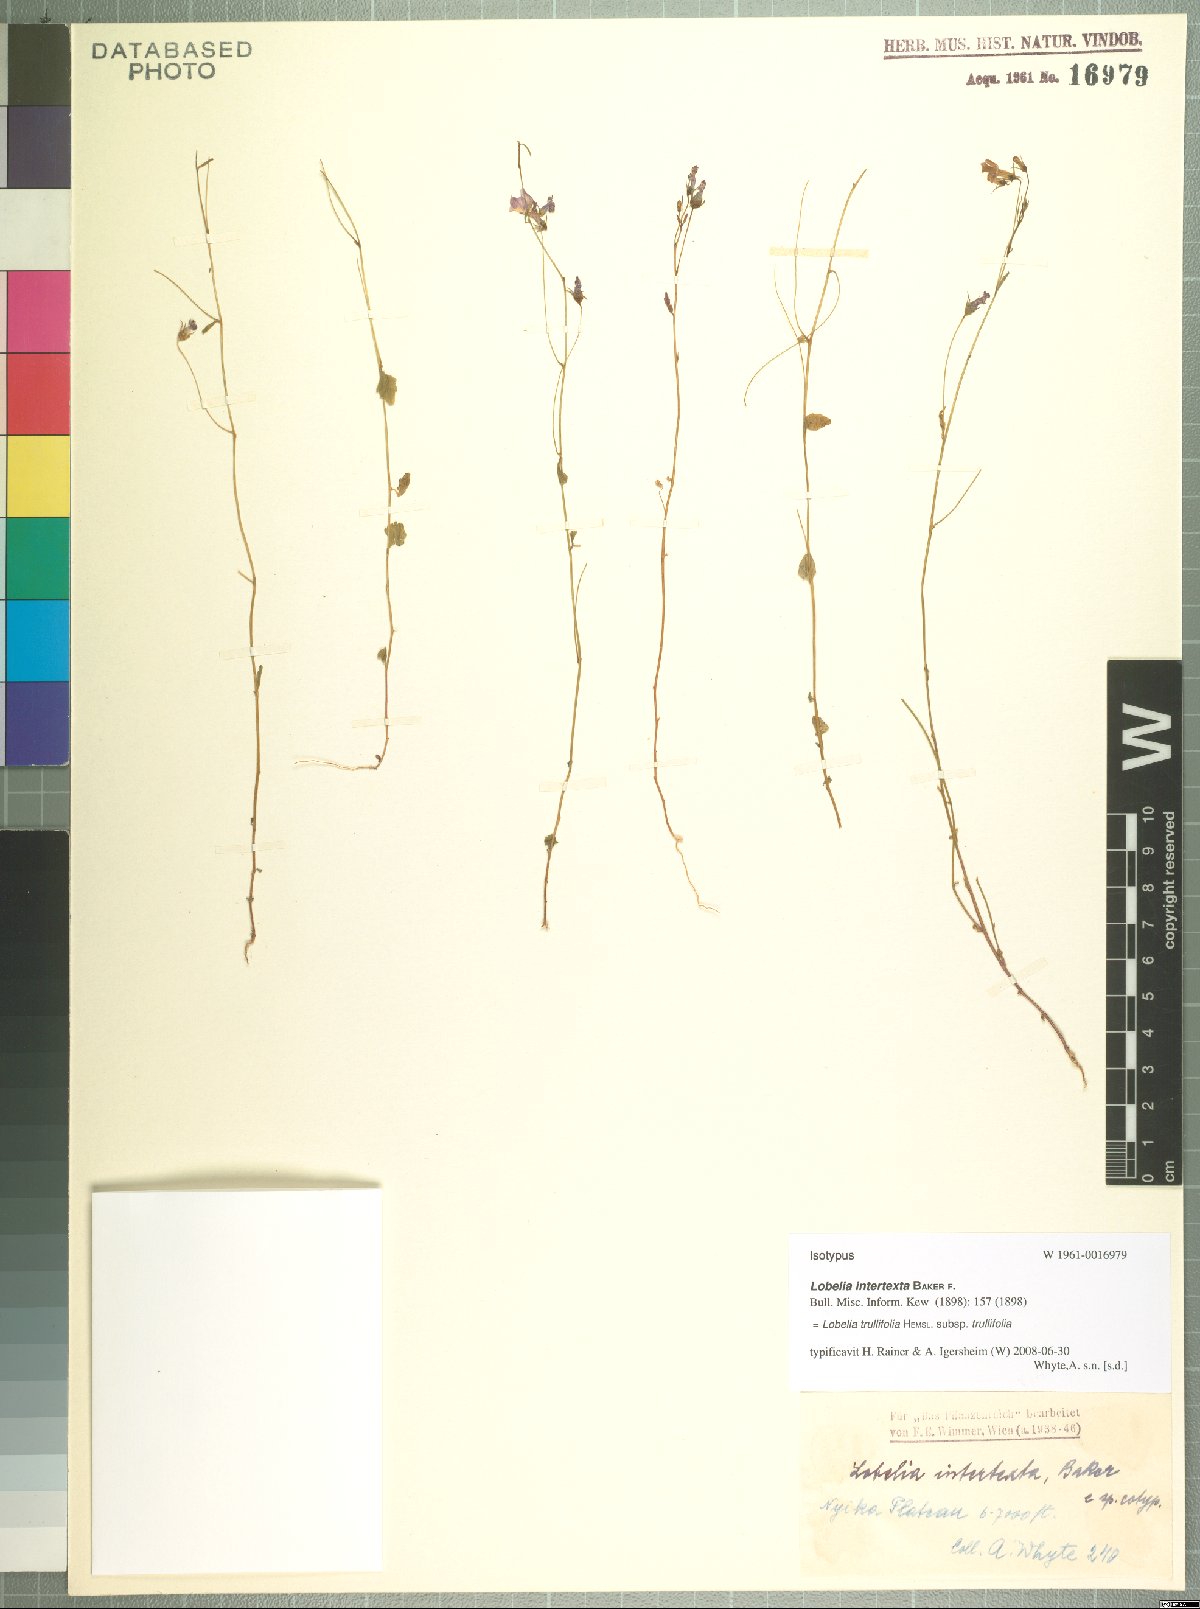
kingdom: Plantae
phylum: Tracheophyta
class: Magnoliopsida
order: Asterales
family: Campanulaceae
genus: Lobelia
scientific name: Lobelia trullifolia
